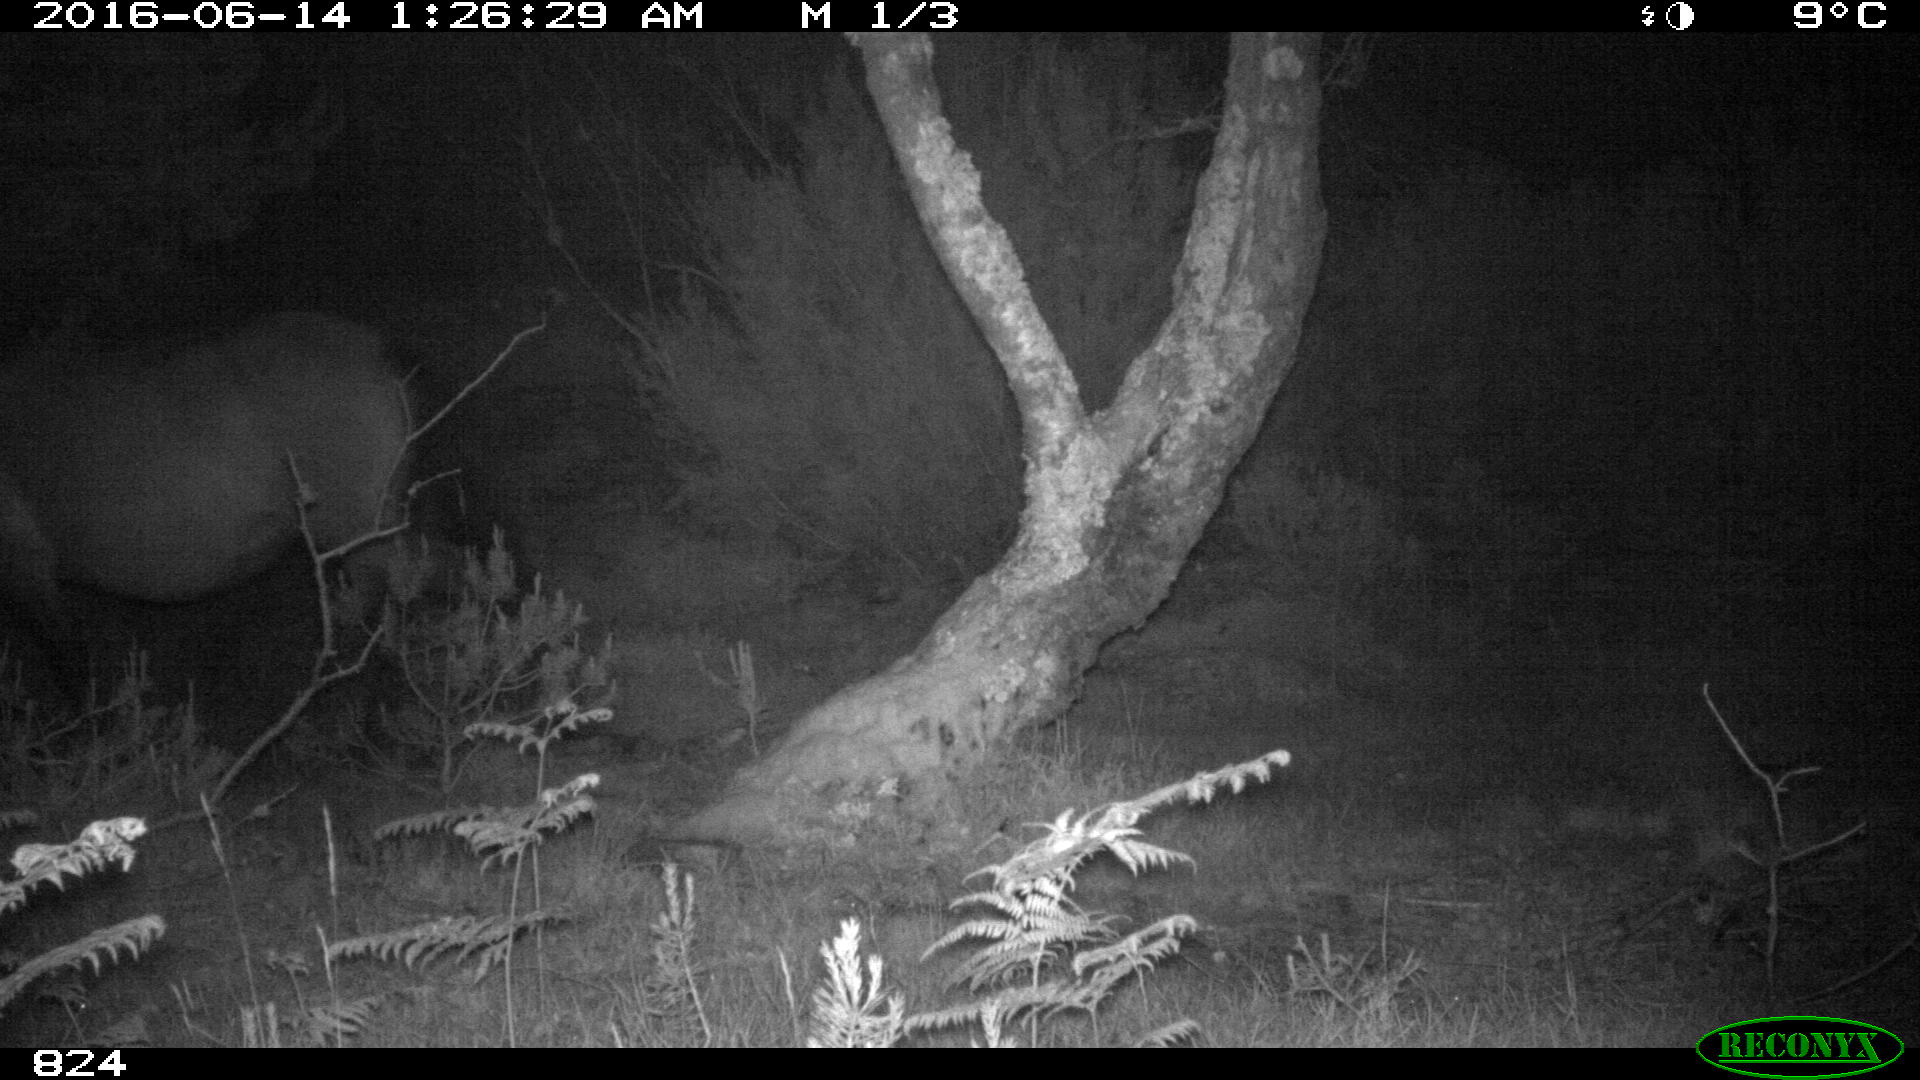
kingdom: Animalia
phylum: Chordata
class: Mammalia
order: Perissodactyla
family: Equidae
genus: Equus
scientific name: Equus caballus
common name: Horse
